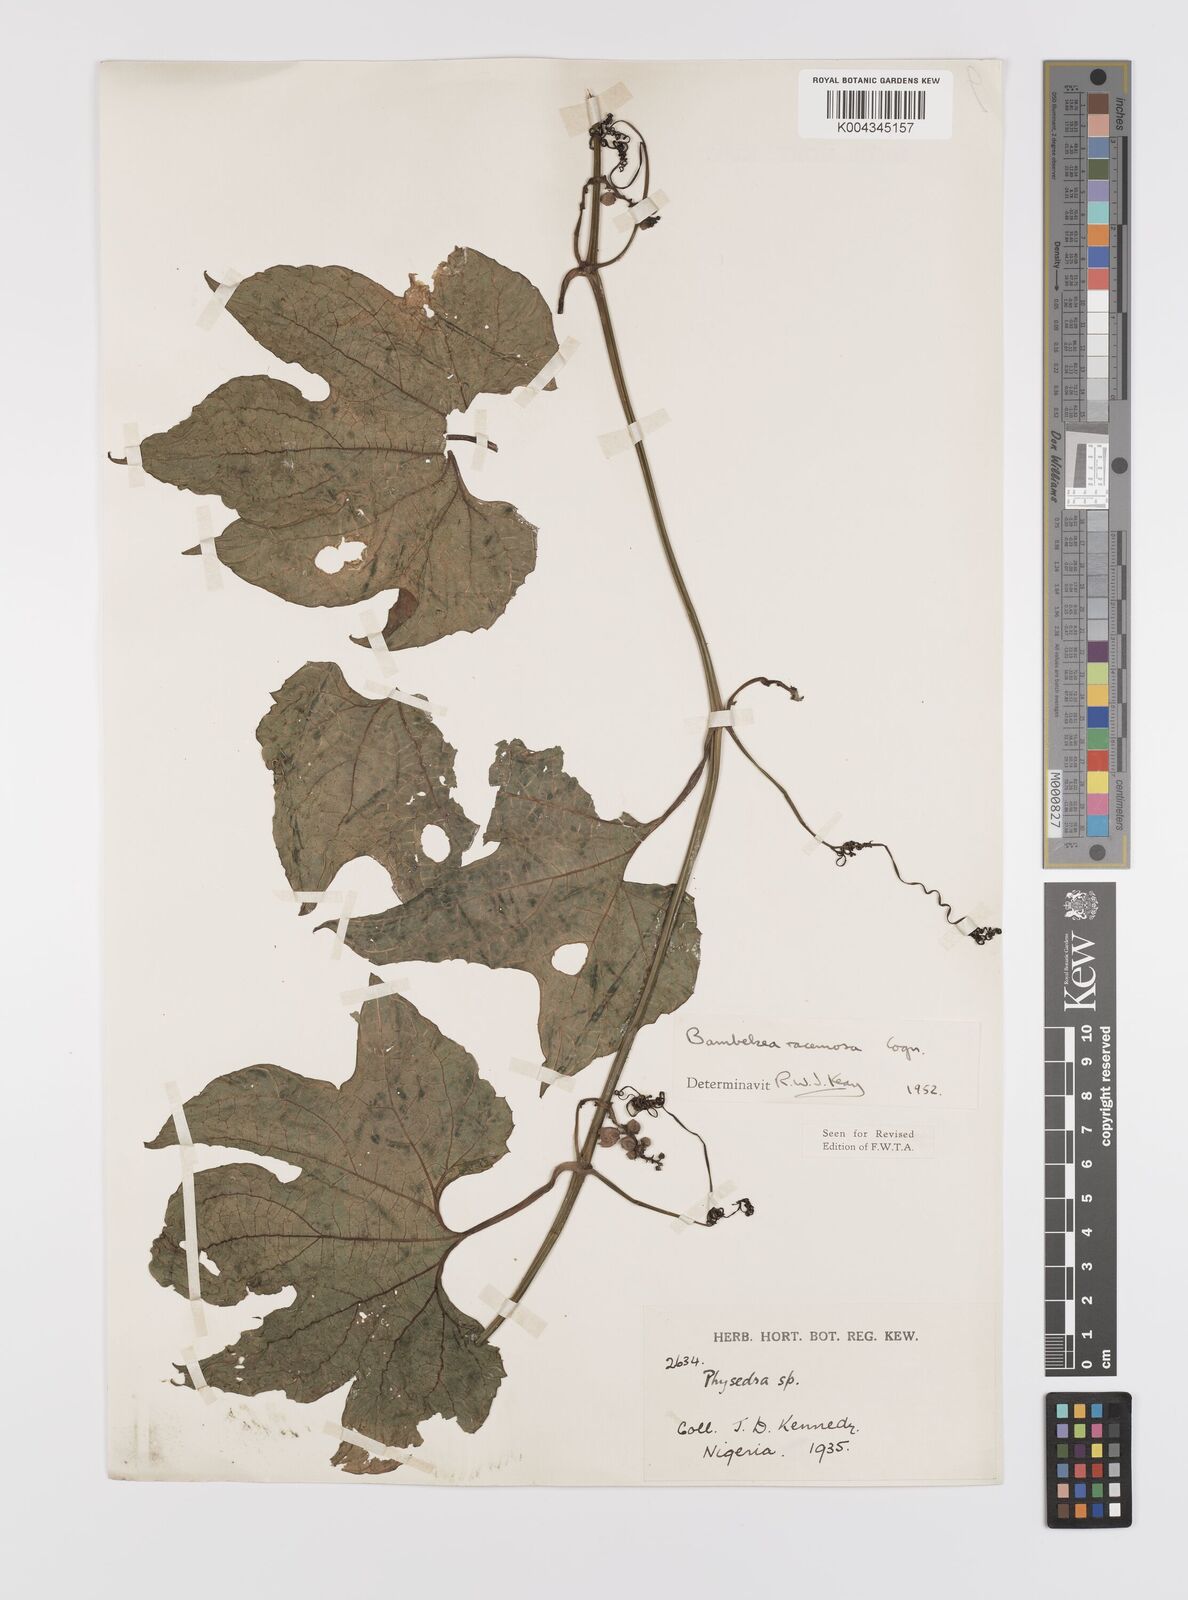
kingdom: Plantae
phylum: Tracheophyta
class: Magnoliopsida
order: Cucurbitales
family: Cucurbitaceae
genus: Bambekea
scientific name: Bambekea racemosa
